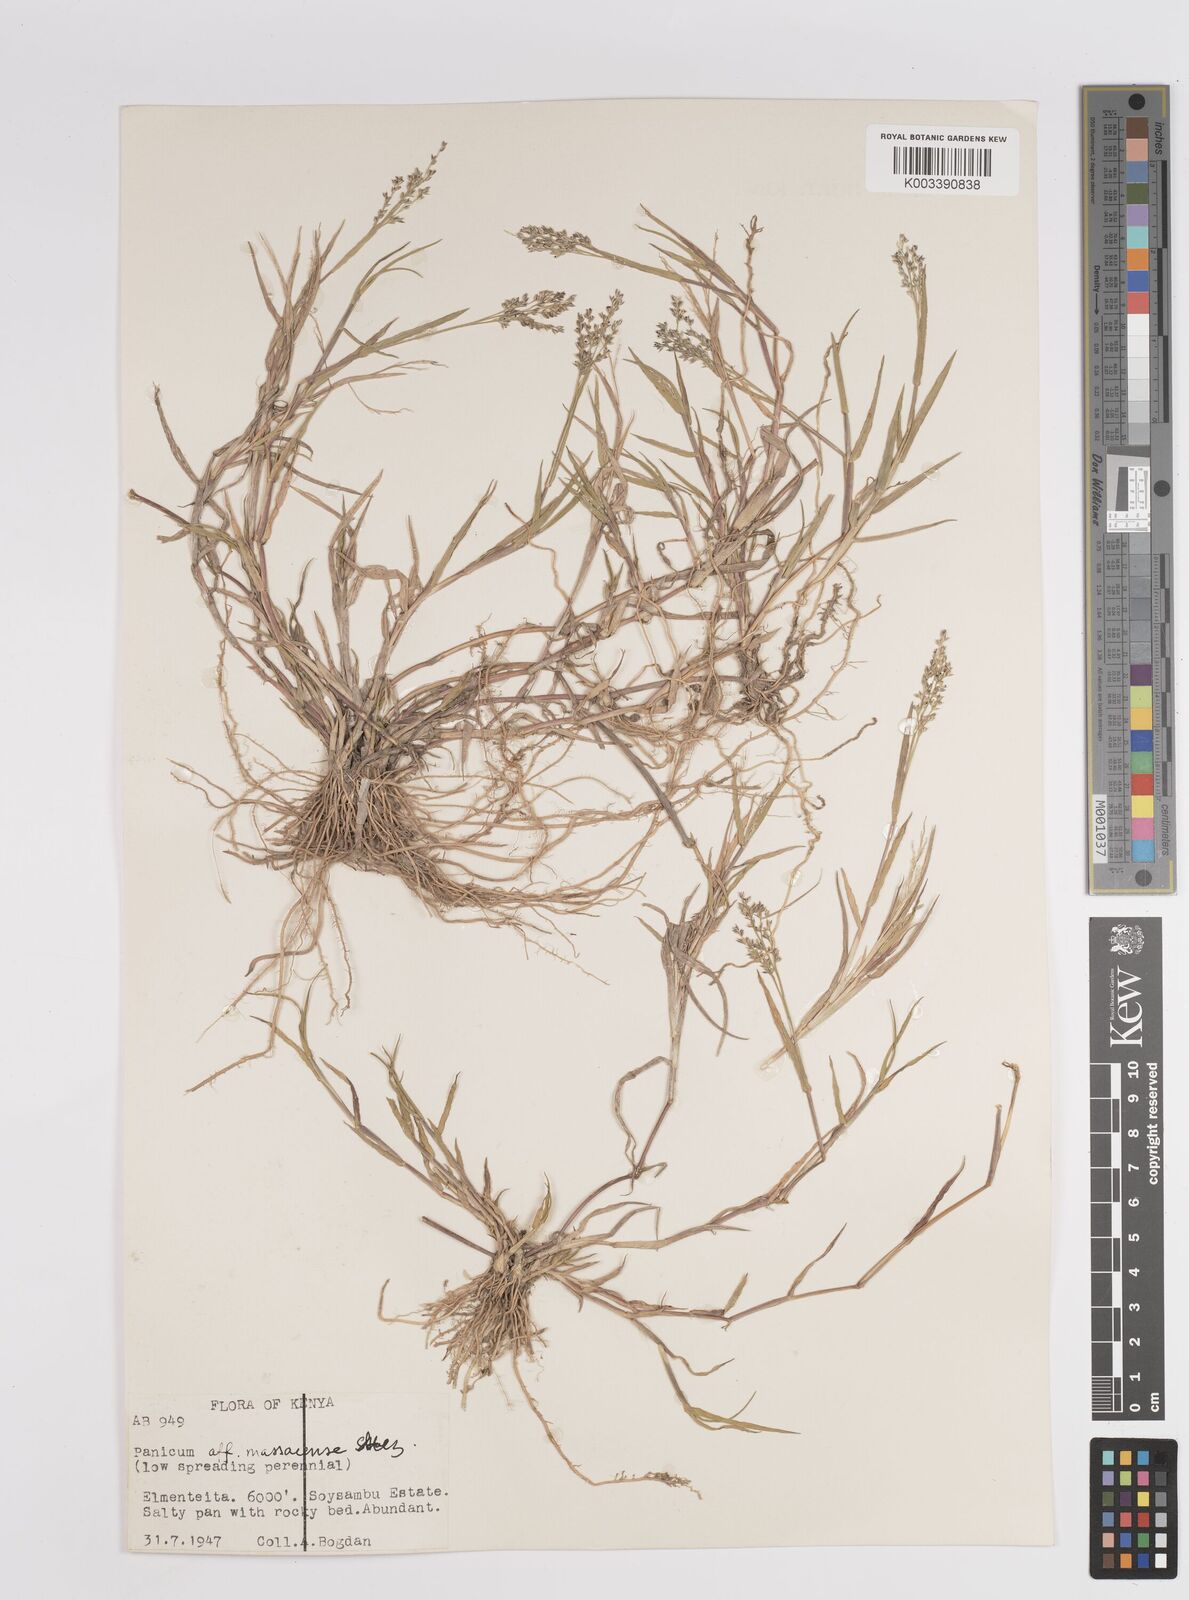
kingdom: Plantae
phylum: Tracheophyta
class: Liliopsida
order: Poales
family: Poaceae
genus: Panicum
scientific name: Panicum coloratum
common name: Kleingrass
